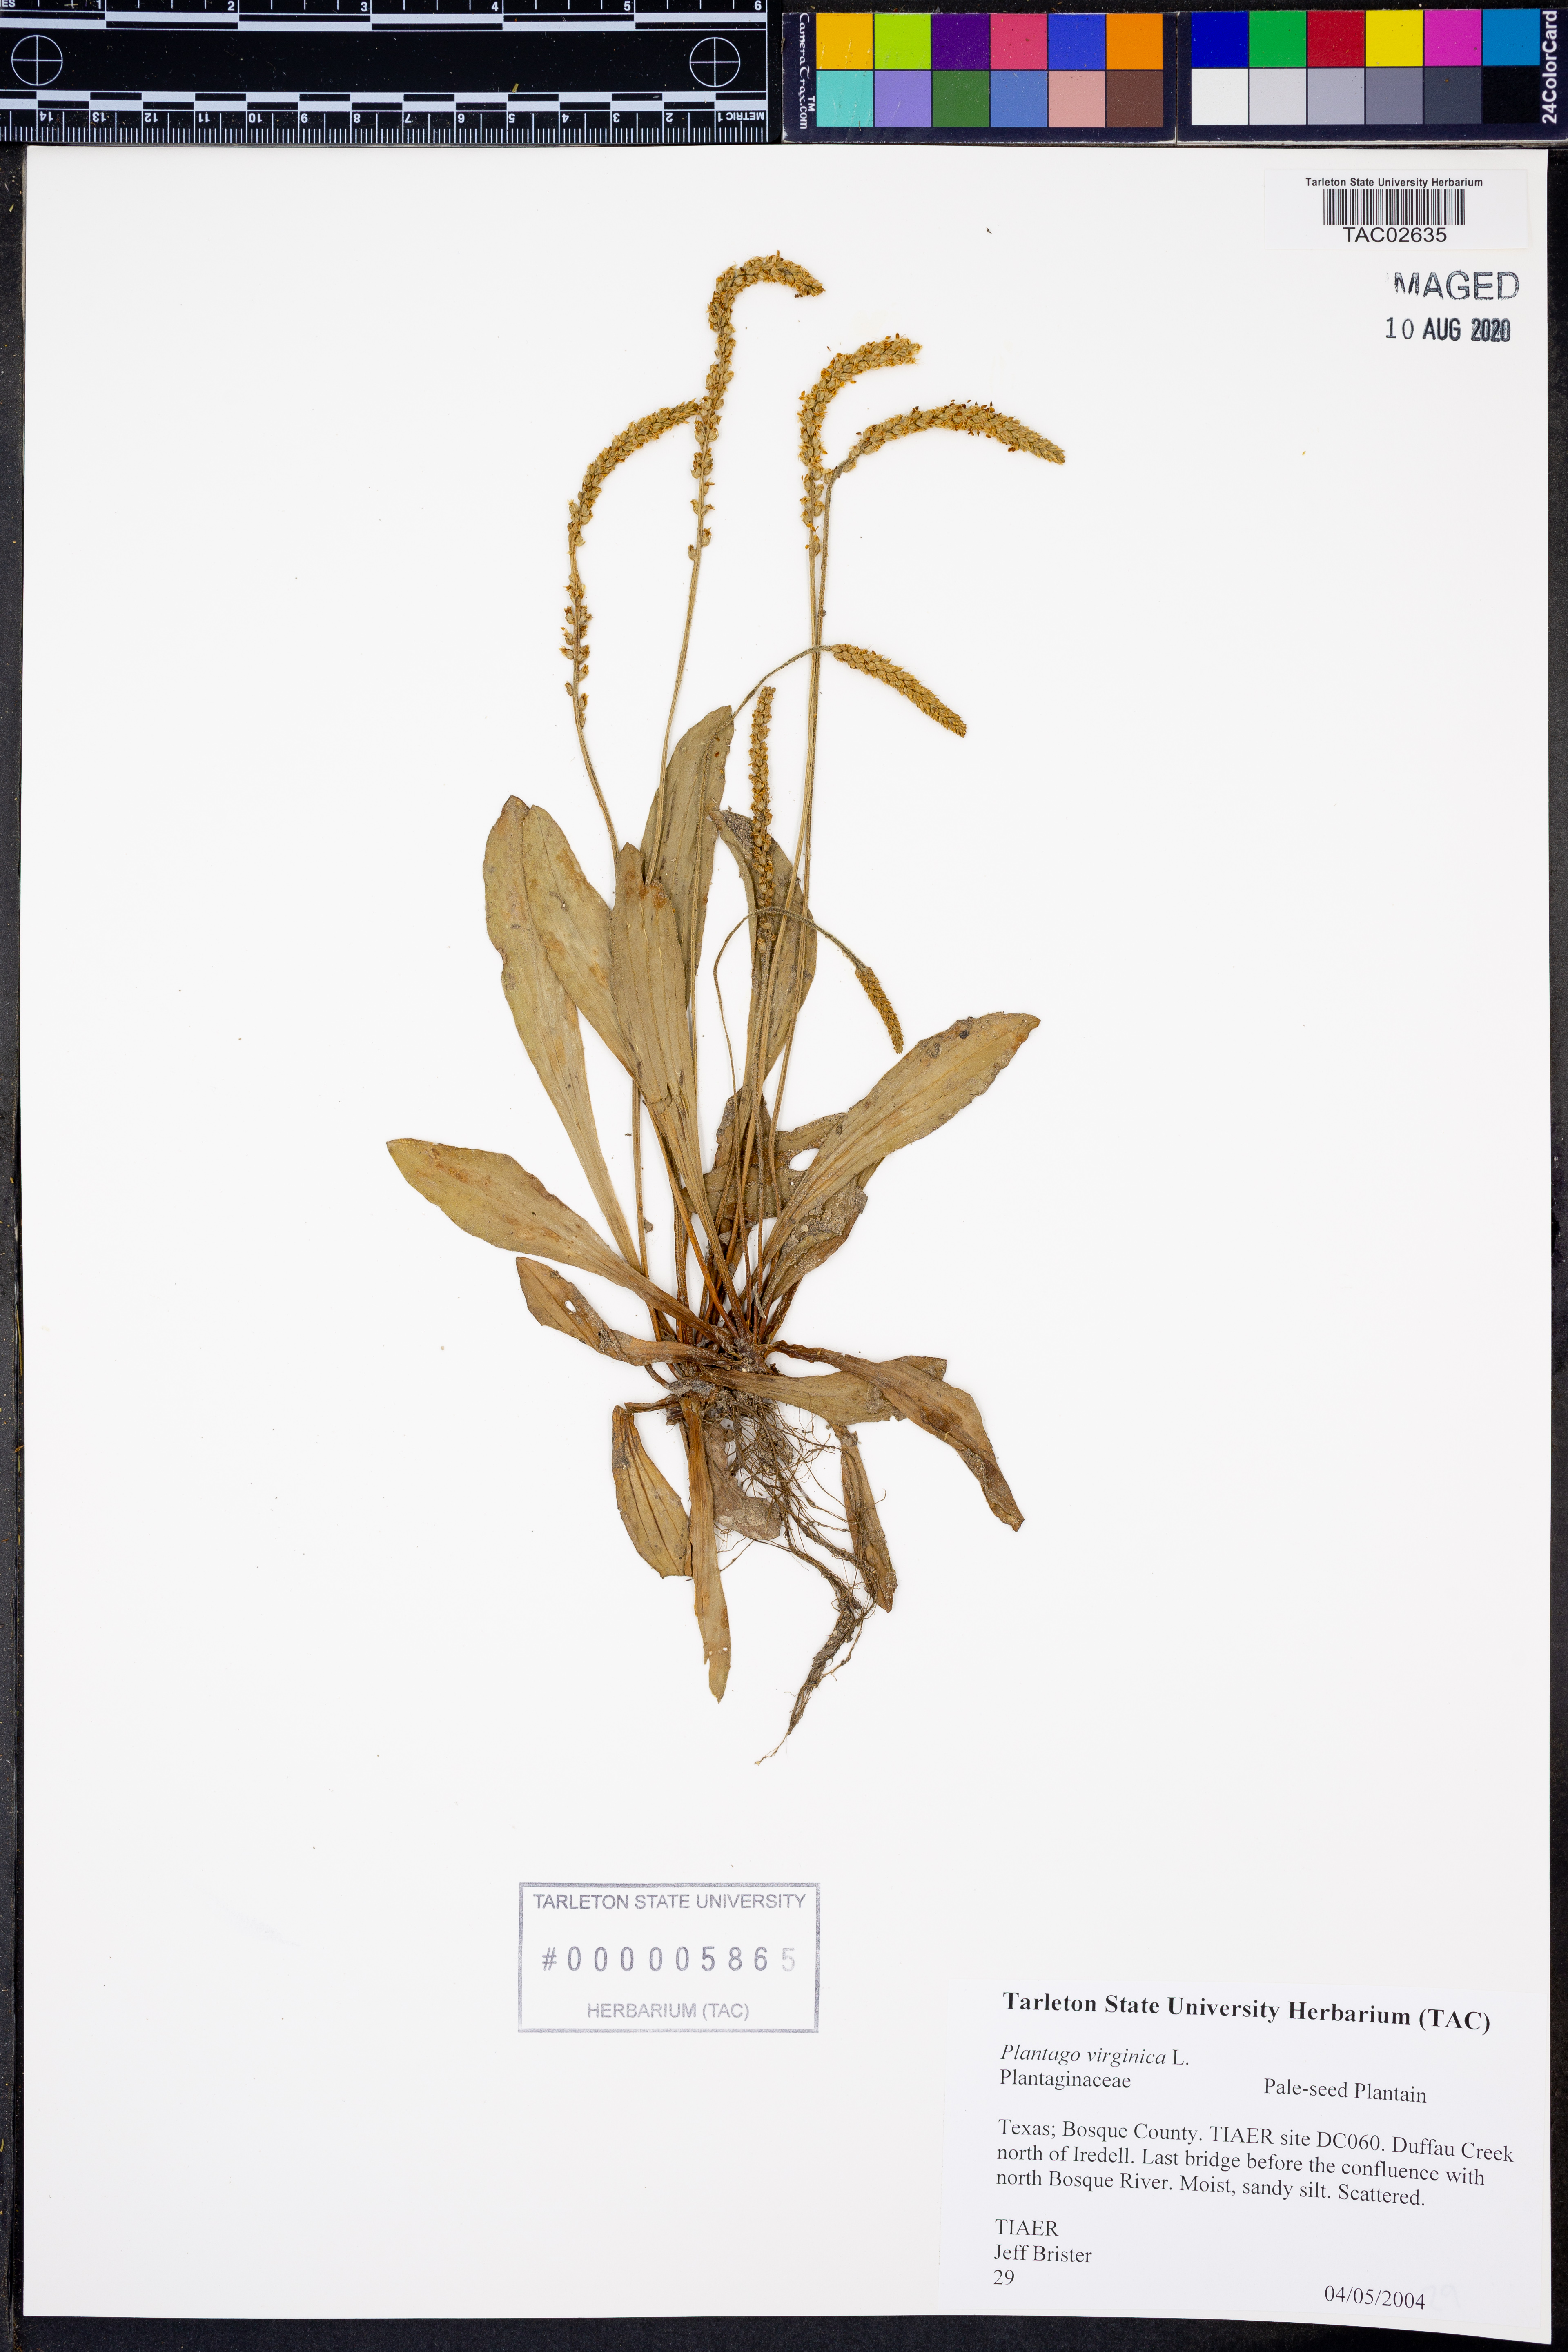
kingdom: Plantae
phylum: Tracheophyta
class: Magnoliopsida
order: Lamiales
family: Plantaginaceae
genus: Plantago
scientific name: Plantago virginica
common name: Hoary plantain
